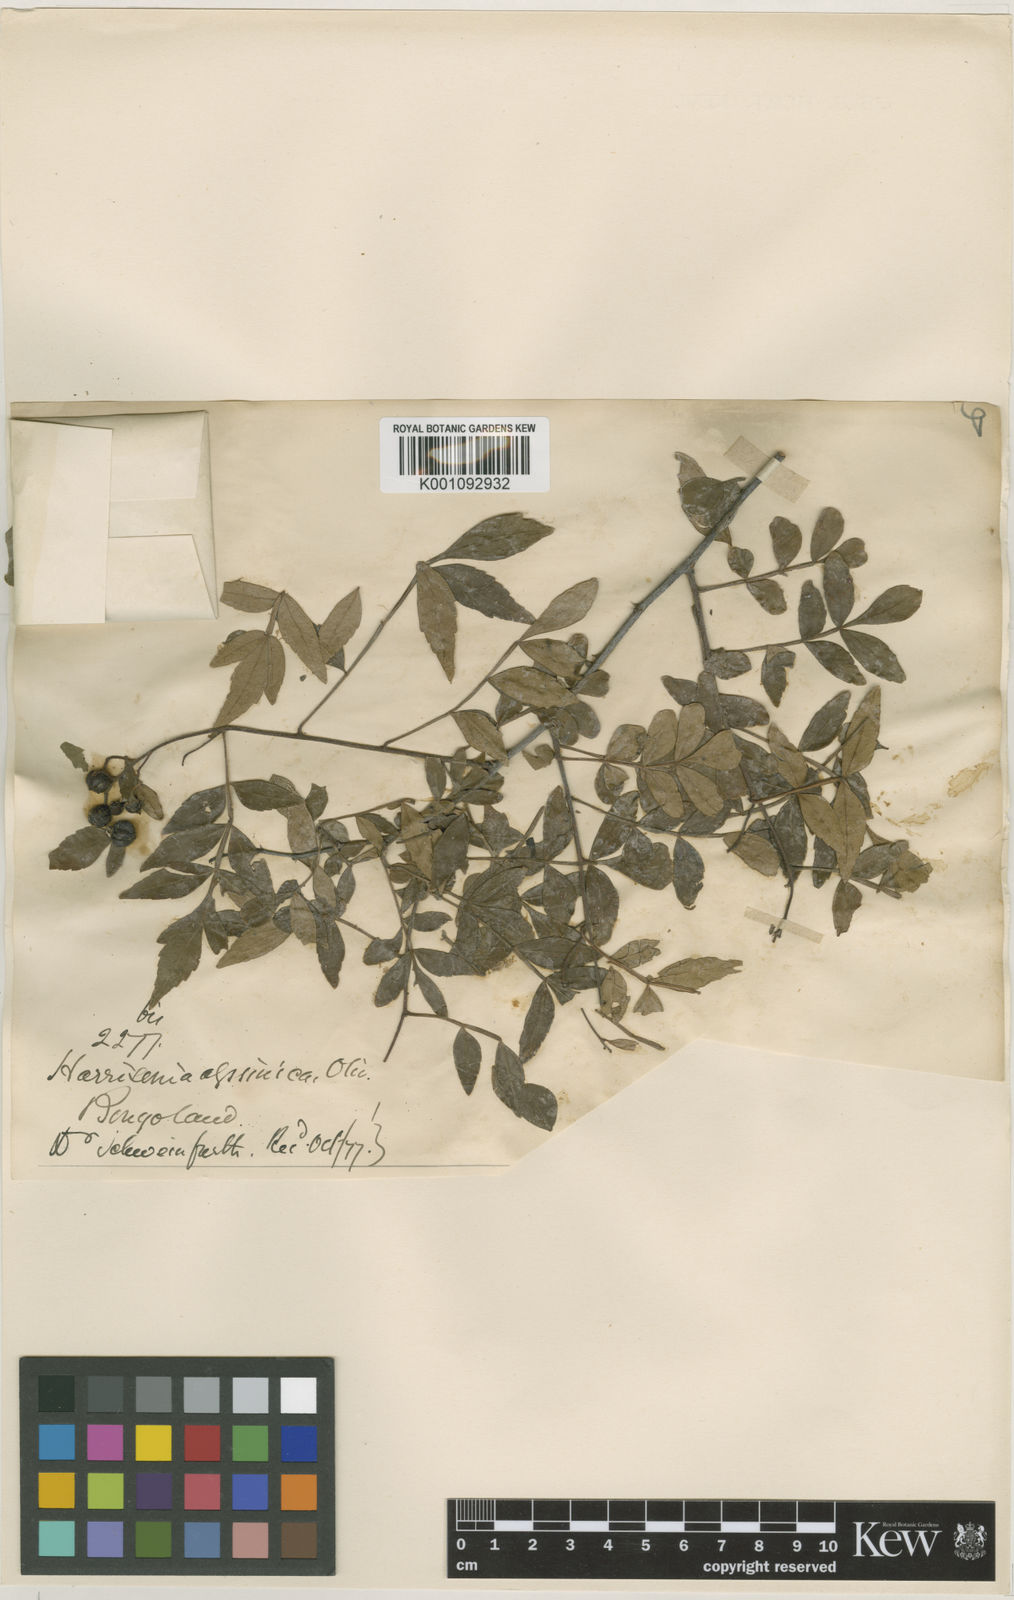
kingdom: Plantae
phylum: Tracheophyta
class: Magnoliopsida
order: Sapindales
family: Rutaceae
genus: Harrisonia
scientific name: Harrisonia abyssinica
